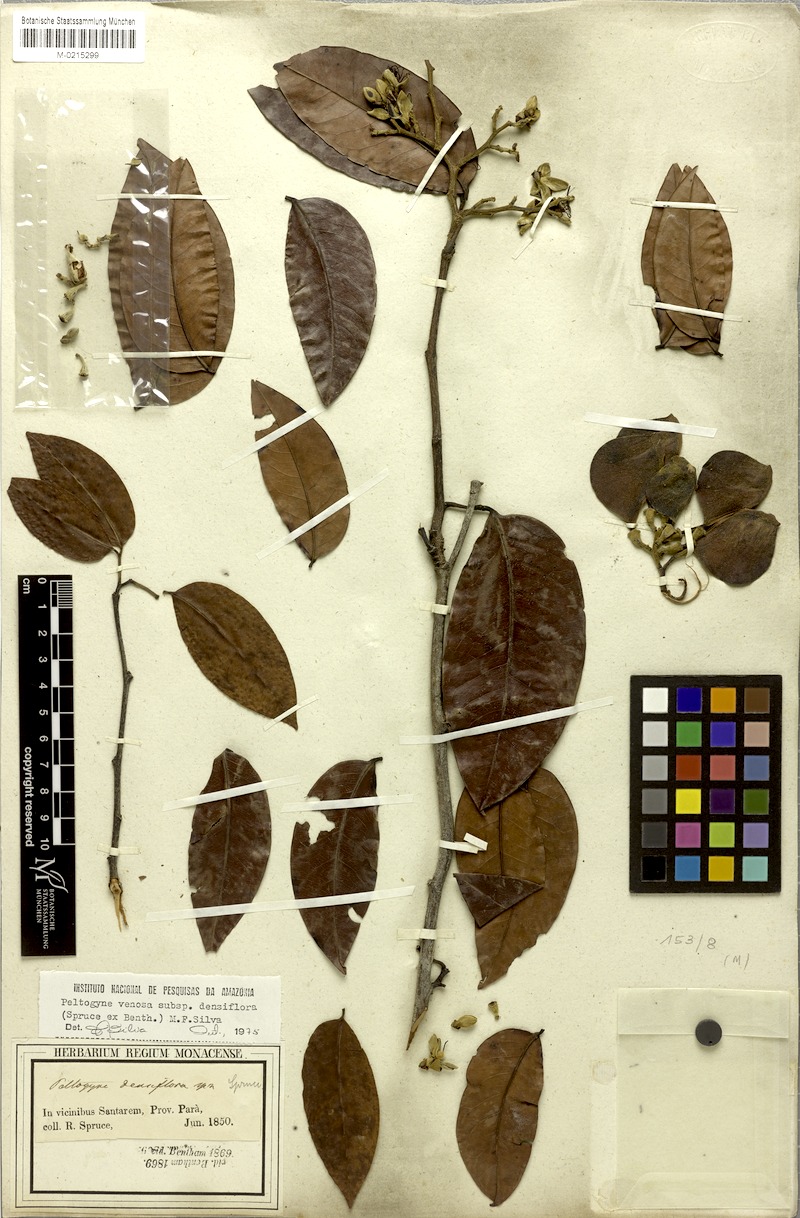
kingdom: Plantae
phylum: Tracheophyta
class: Magnoliopsida
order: Fabales
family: Fabaceae
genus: Peltogyne
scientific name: Peltogyne venosa
